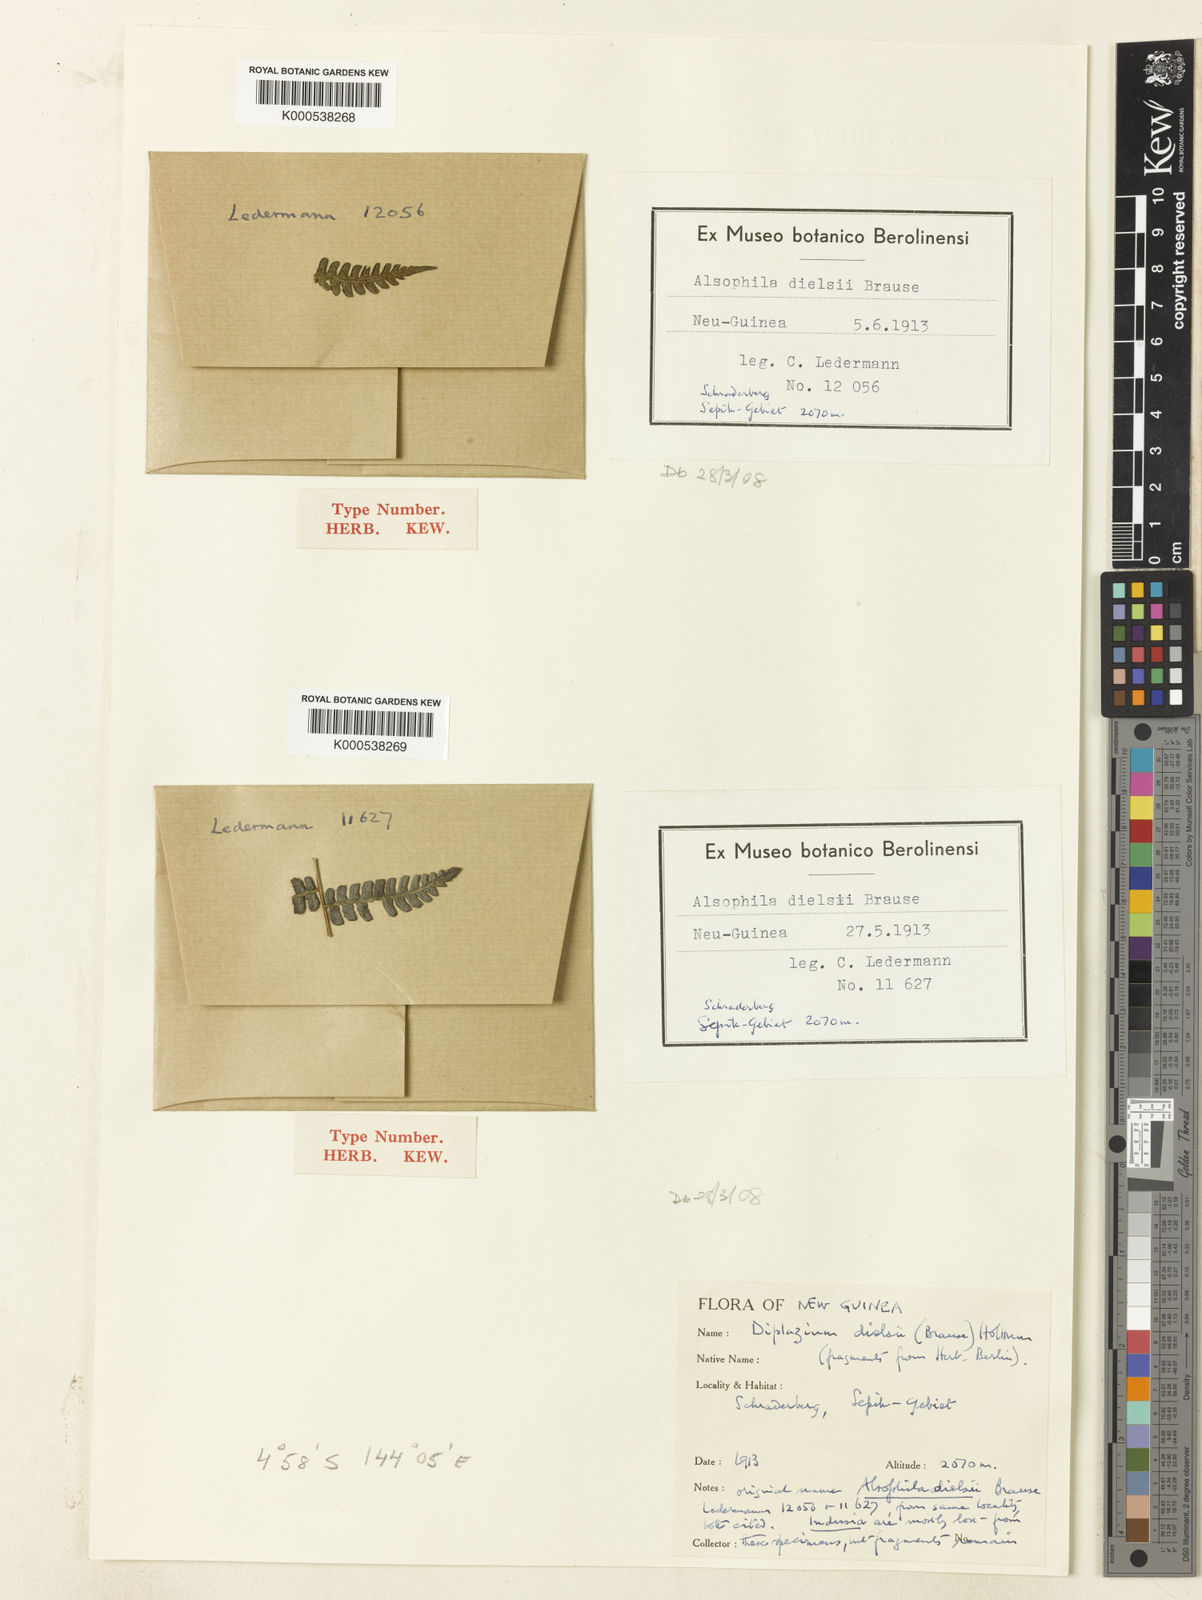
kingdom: Plantae
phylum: Tracheophyta
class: Polypodiopsida
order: Polypodiales
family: Athyriaceae
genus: Diplazium
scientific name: Diplazium dielsii
